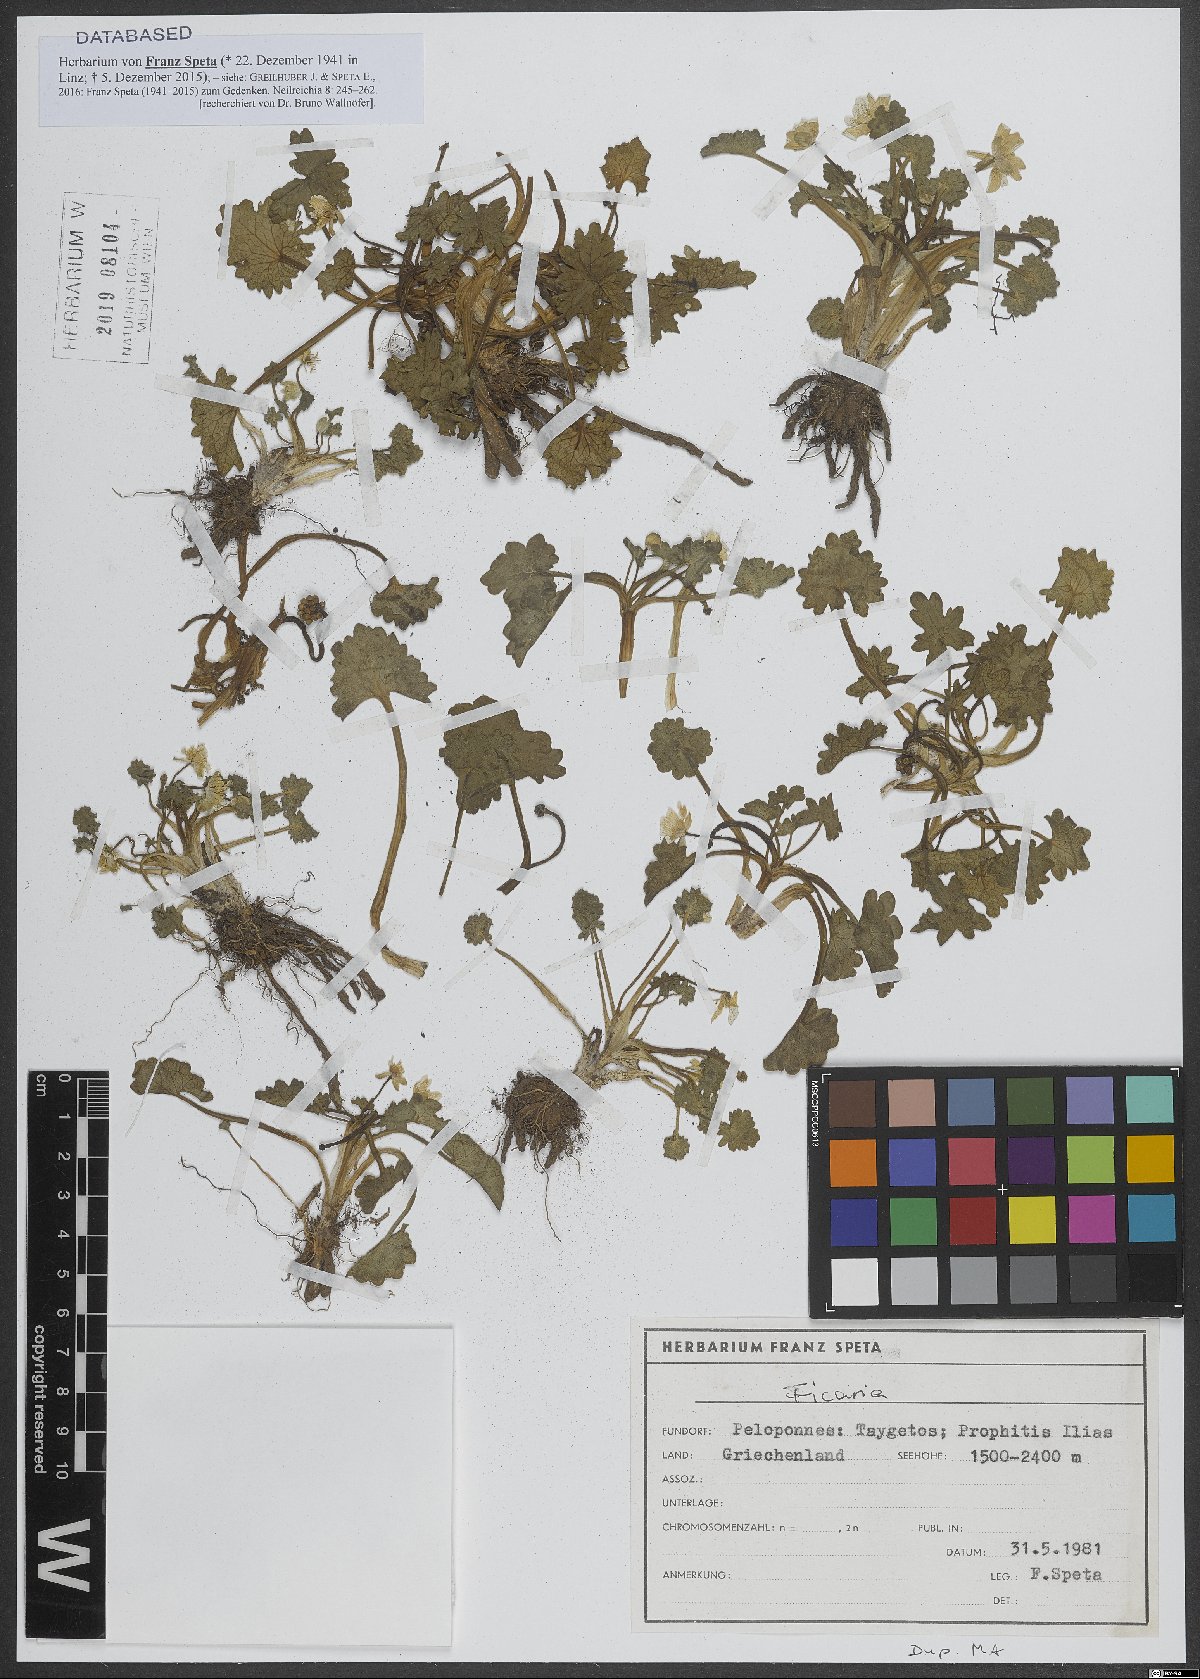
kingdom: Plantae
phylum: Tracheophyta
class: Magnoliopsida
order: Ranunculales
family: Ranunculaceae
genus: Ficaria
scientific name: Ficaria
